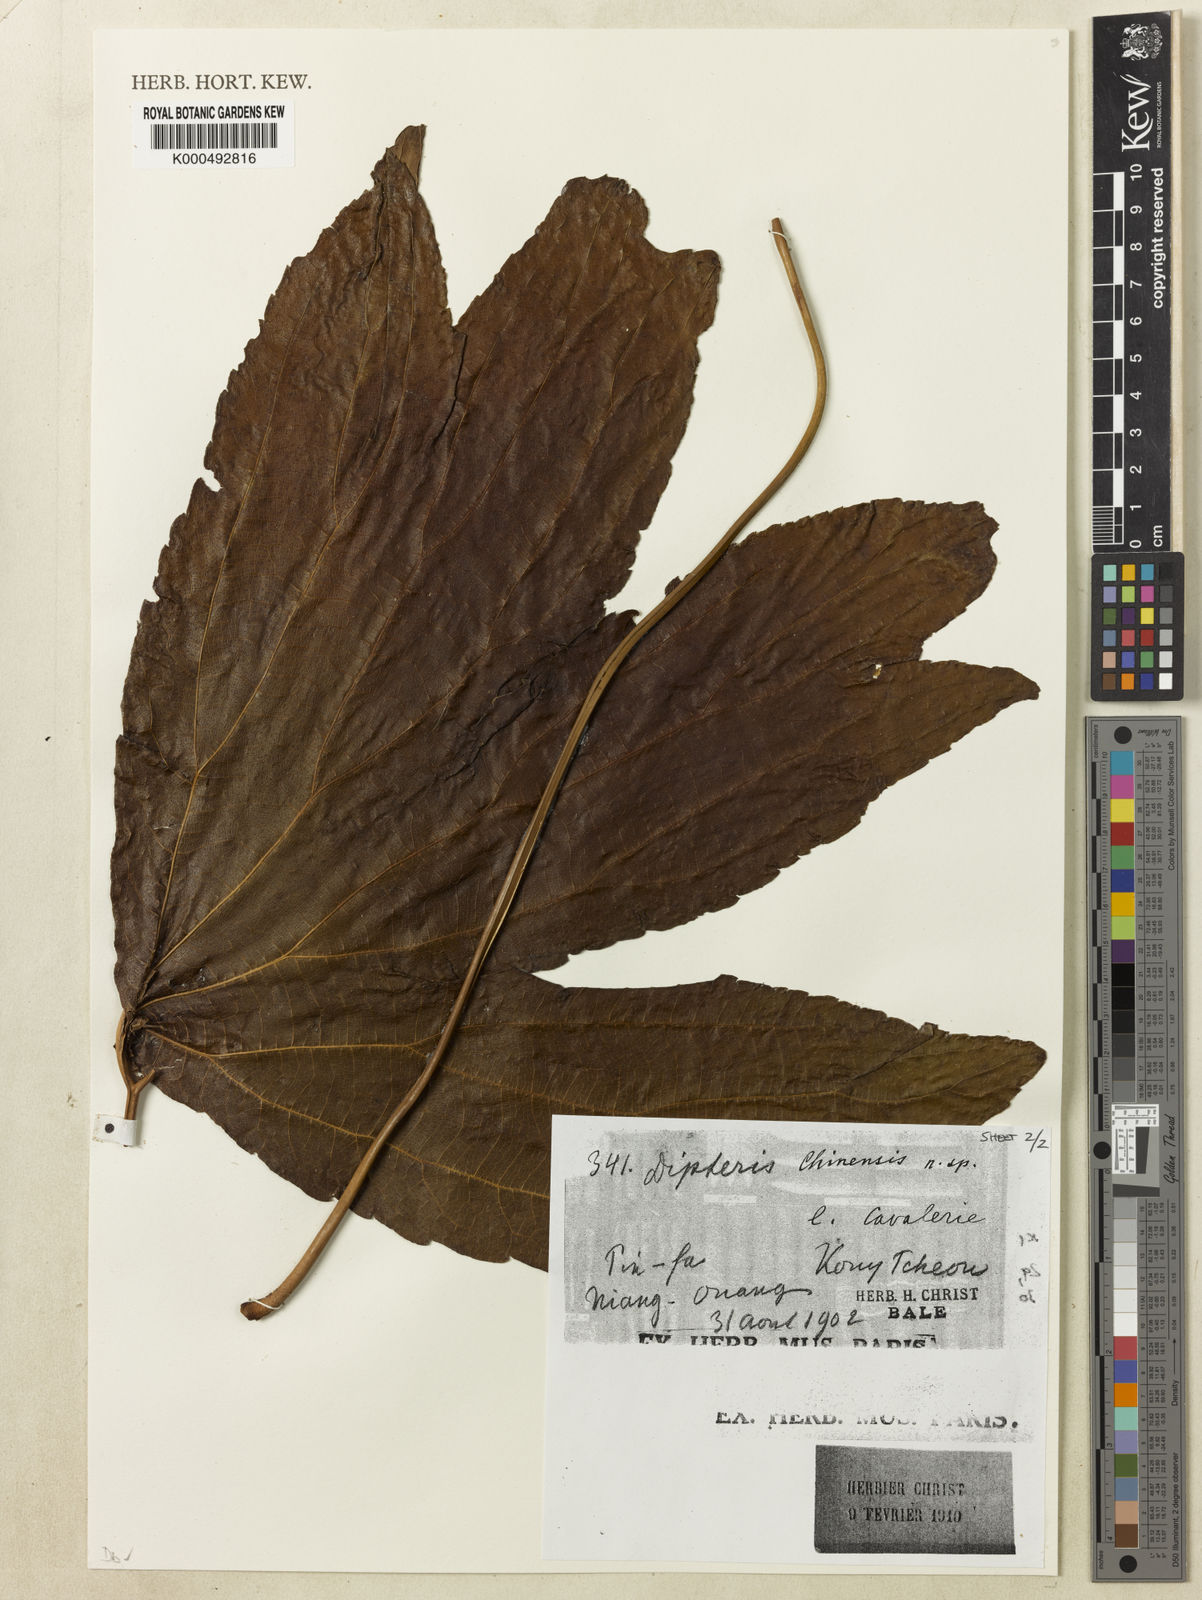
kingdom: Plantae
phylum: Tracheophyta
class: Polypodiopsida
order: Gleicheniales
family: Dipteridaceae
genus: Dipteris
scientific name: Dipteris chinensis
